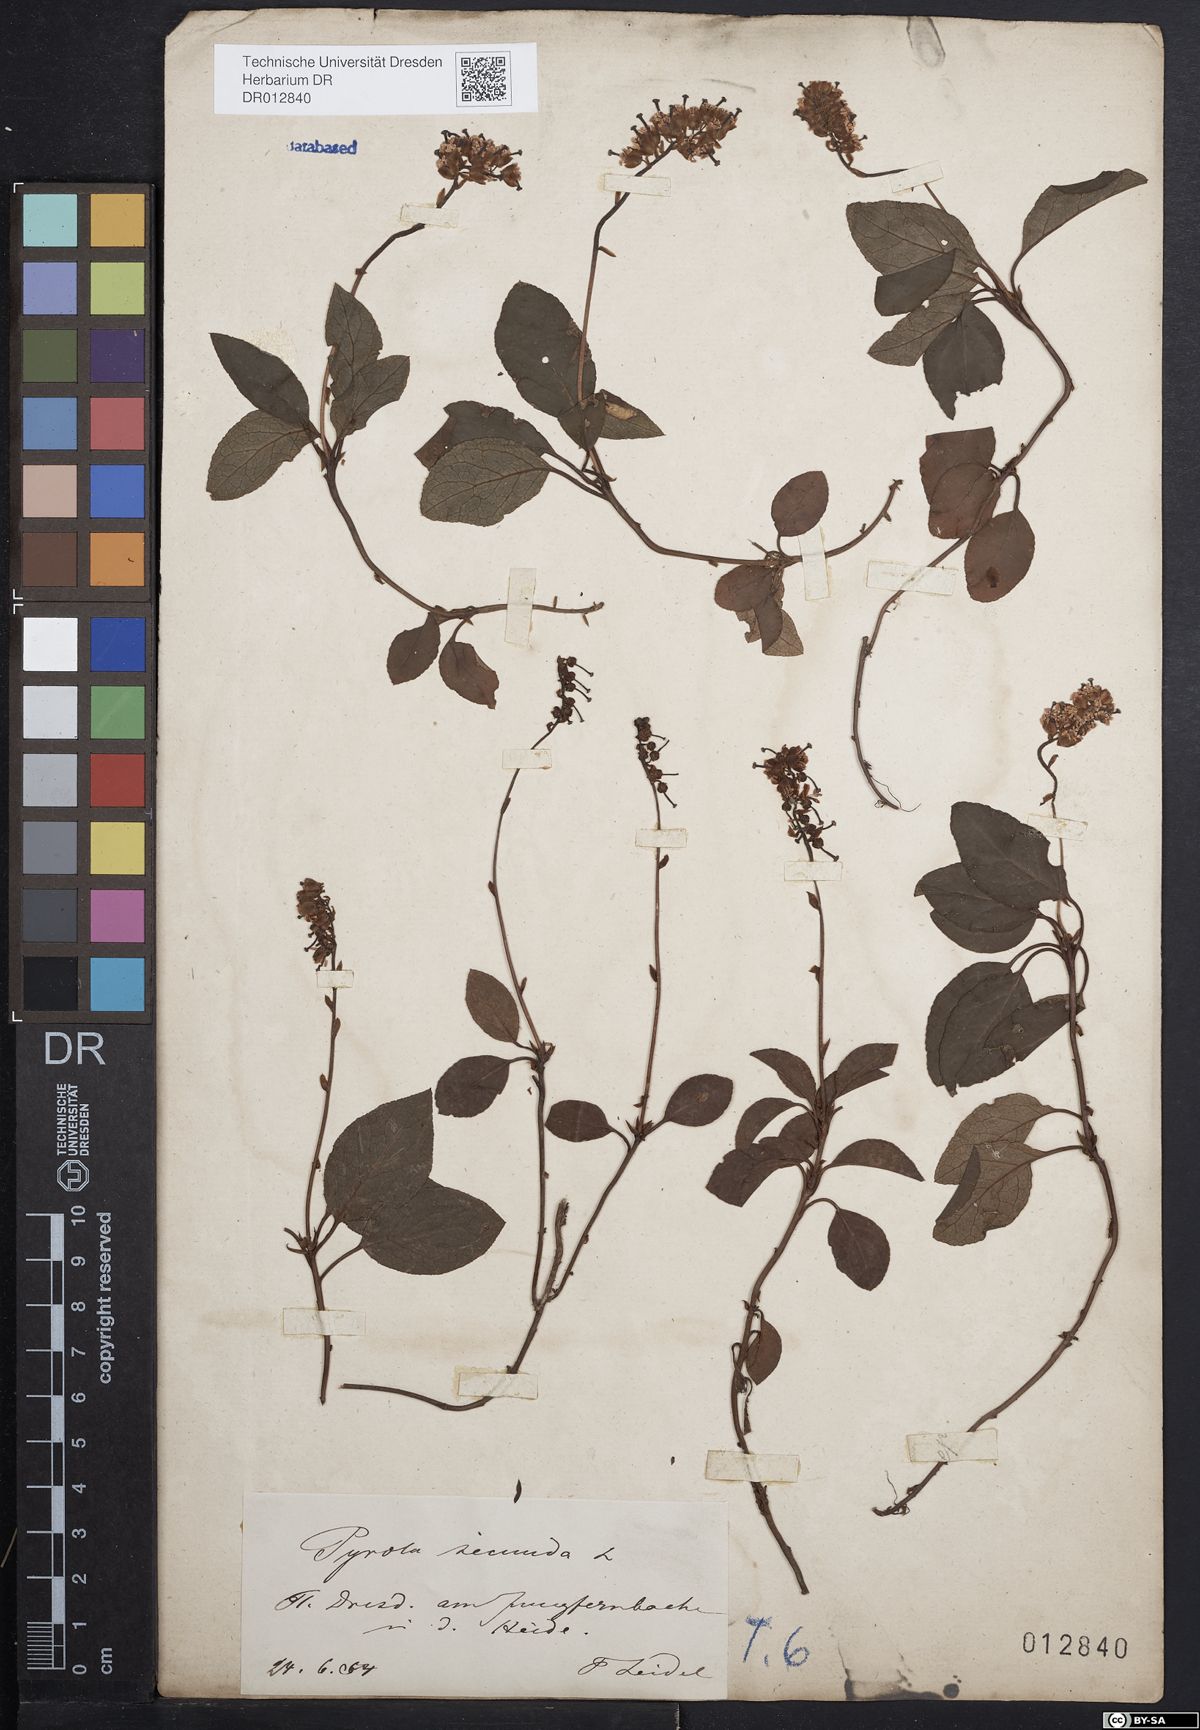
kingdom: Plantae
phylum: Tracheophyta
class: Magnoliopsida
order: Ericales
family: Ericaceae
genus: Orthilia
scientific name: Orthilia secunda
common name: One-sided orthilia
